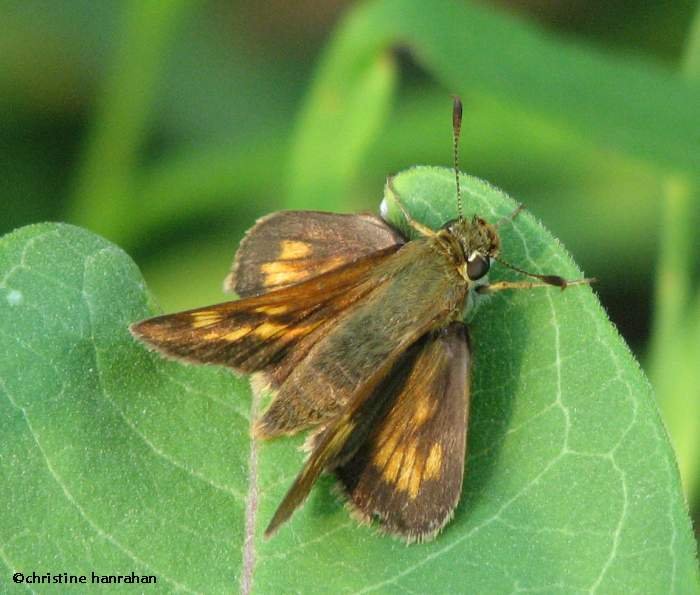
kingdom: Animalia
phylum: Arthropoda
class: Insecta
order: Lepidoptera
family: Hesperiidae
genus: Polites
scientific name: Polites coras
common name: Peck's Skipper
